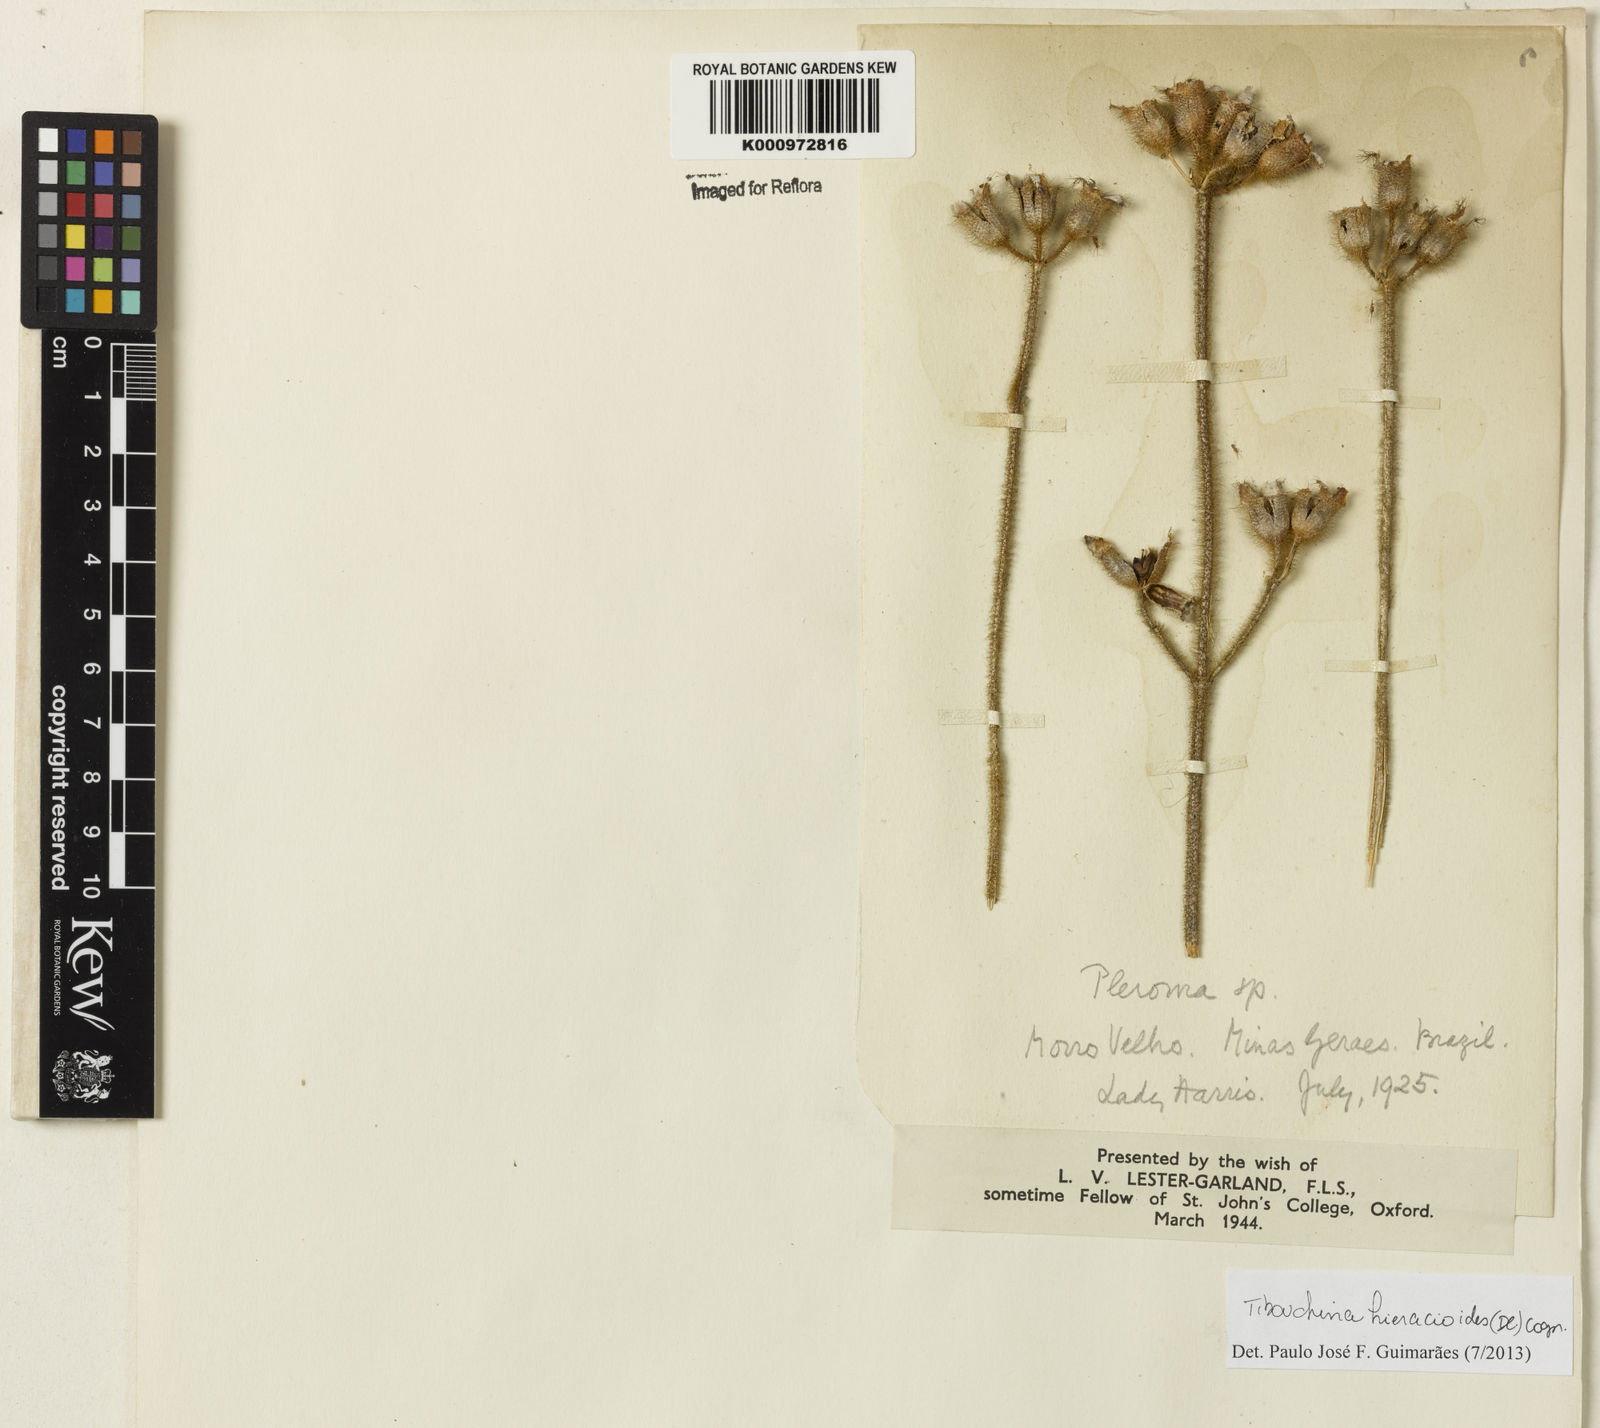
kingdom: Plantae
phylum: Tracheophyta
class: Magnoliopsida
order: Myrtales
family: Melastomataceae
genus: Chaetogastra
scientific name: Chaetogastra hieracioides
